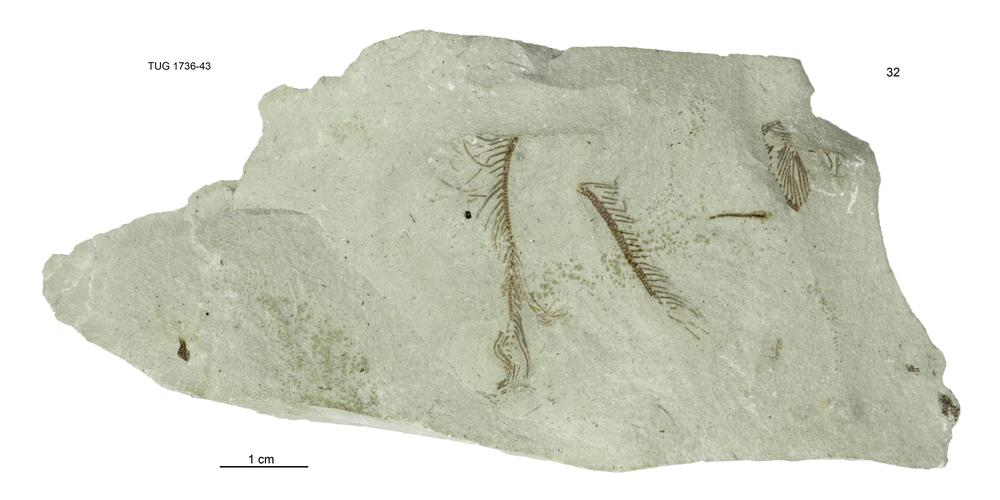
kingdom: Animalia
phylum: Echinodermata
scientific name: Echinodermata
